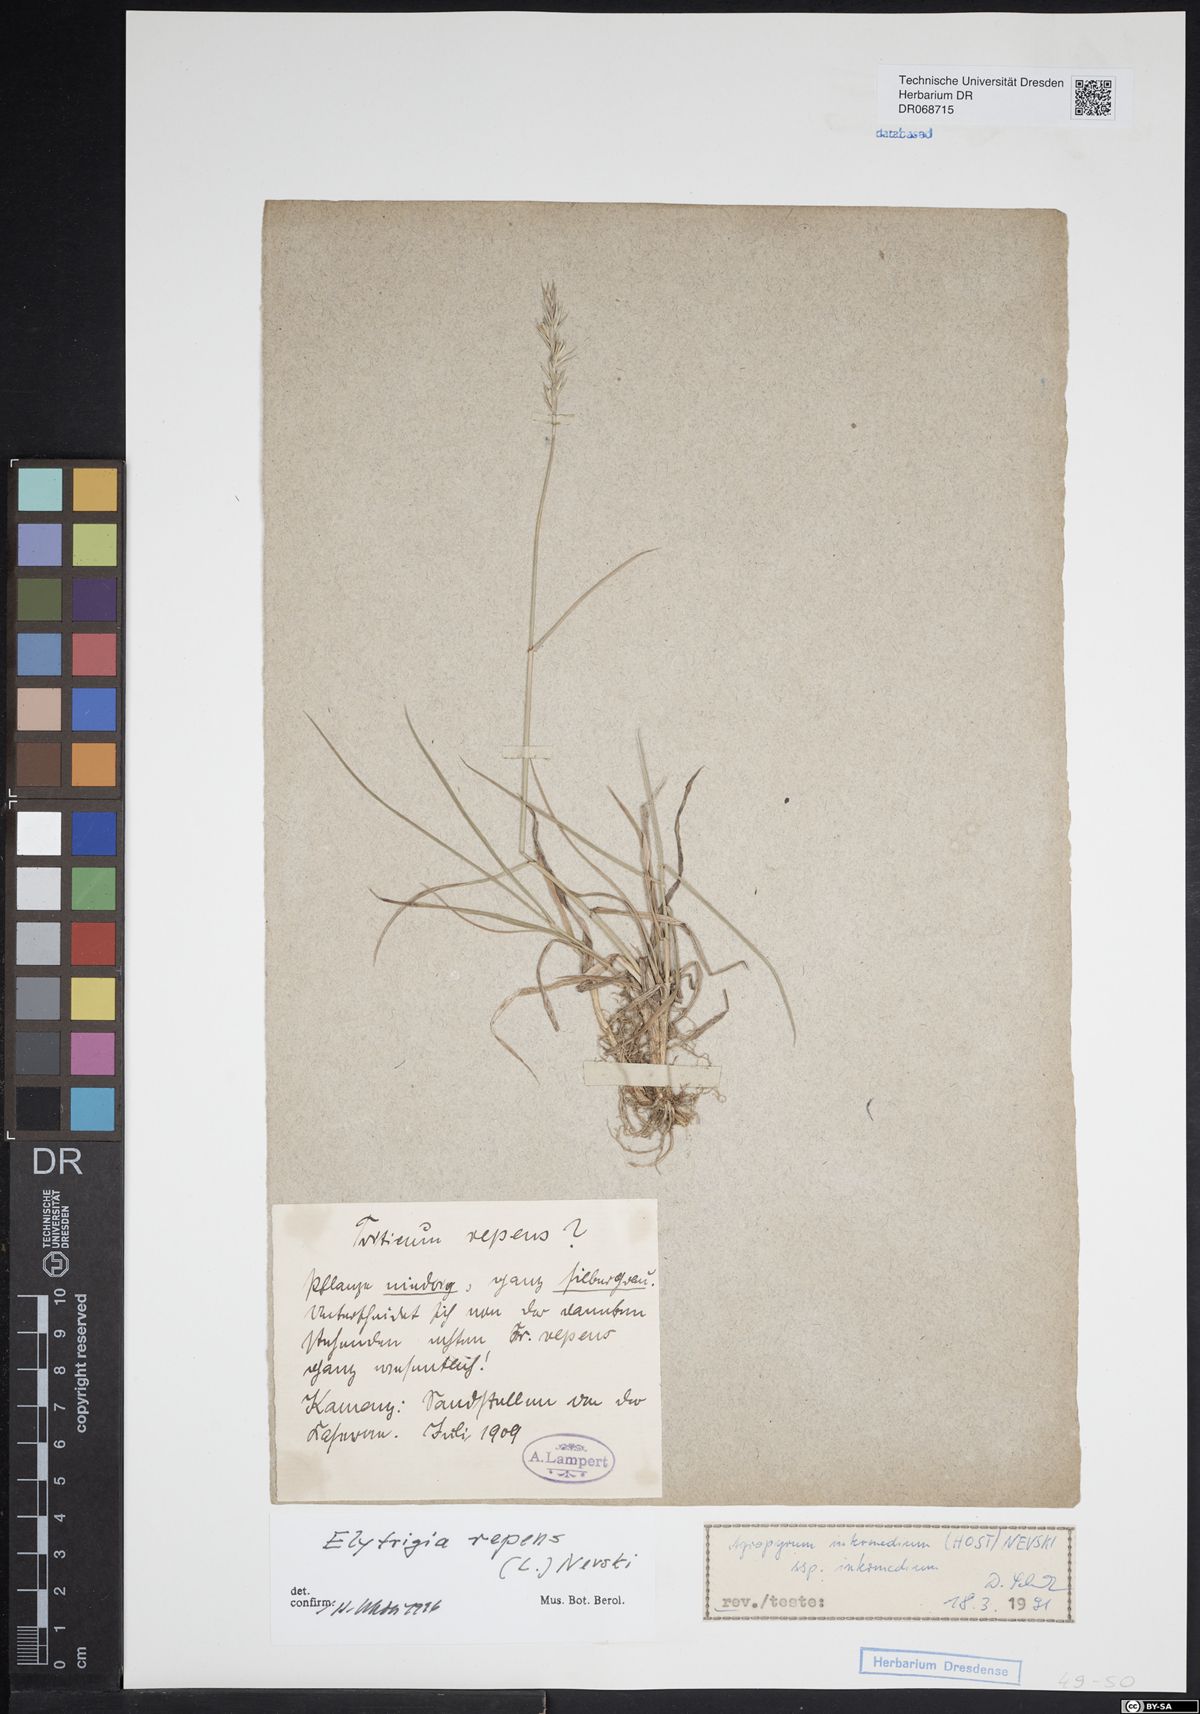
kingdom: Plantae
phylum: Tracheophyta
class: Liliopsida
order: Poales
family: Poaceae
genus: Elymus
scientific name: Elymus repens
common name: Quackgrass
